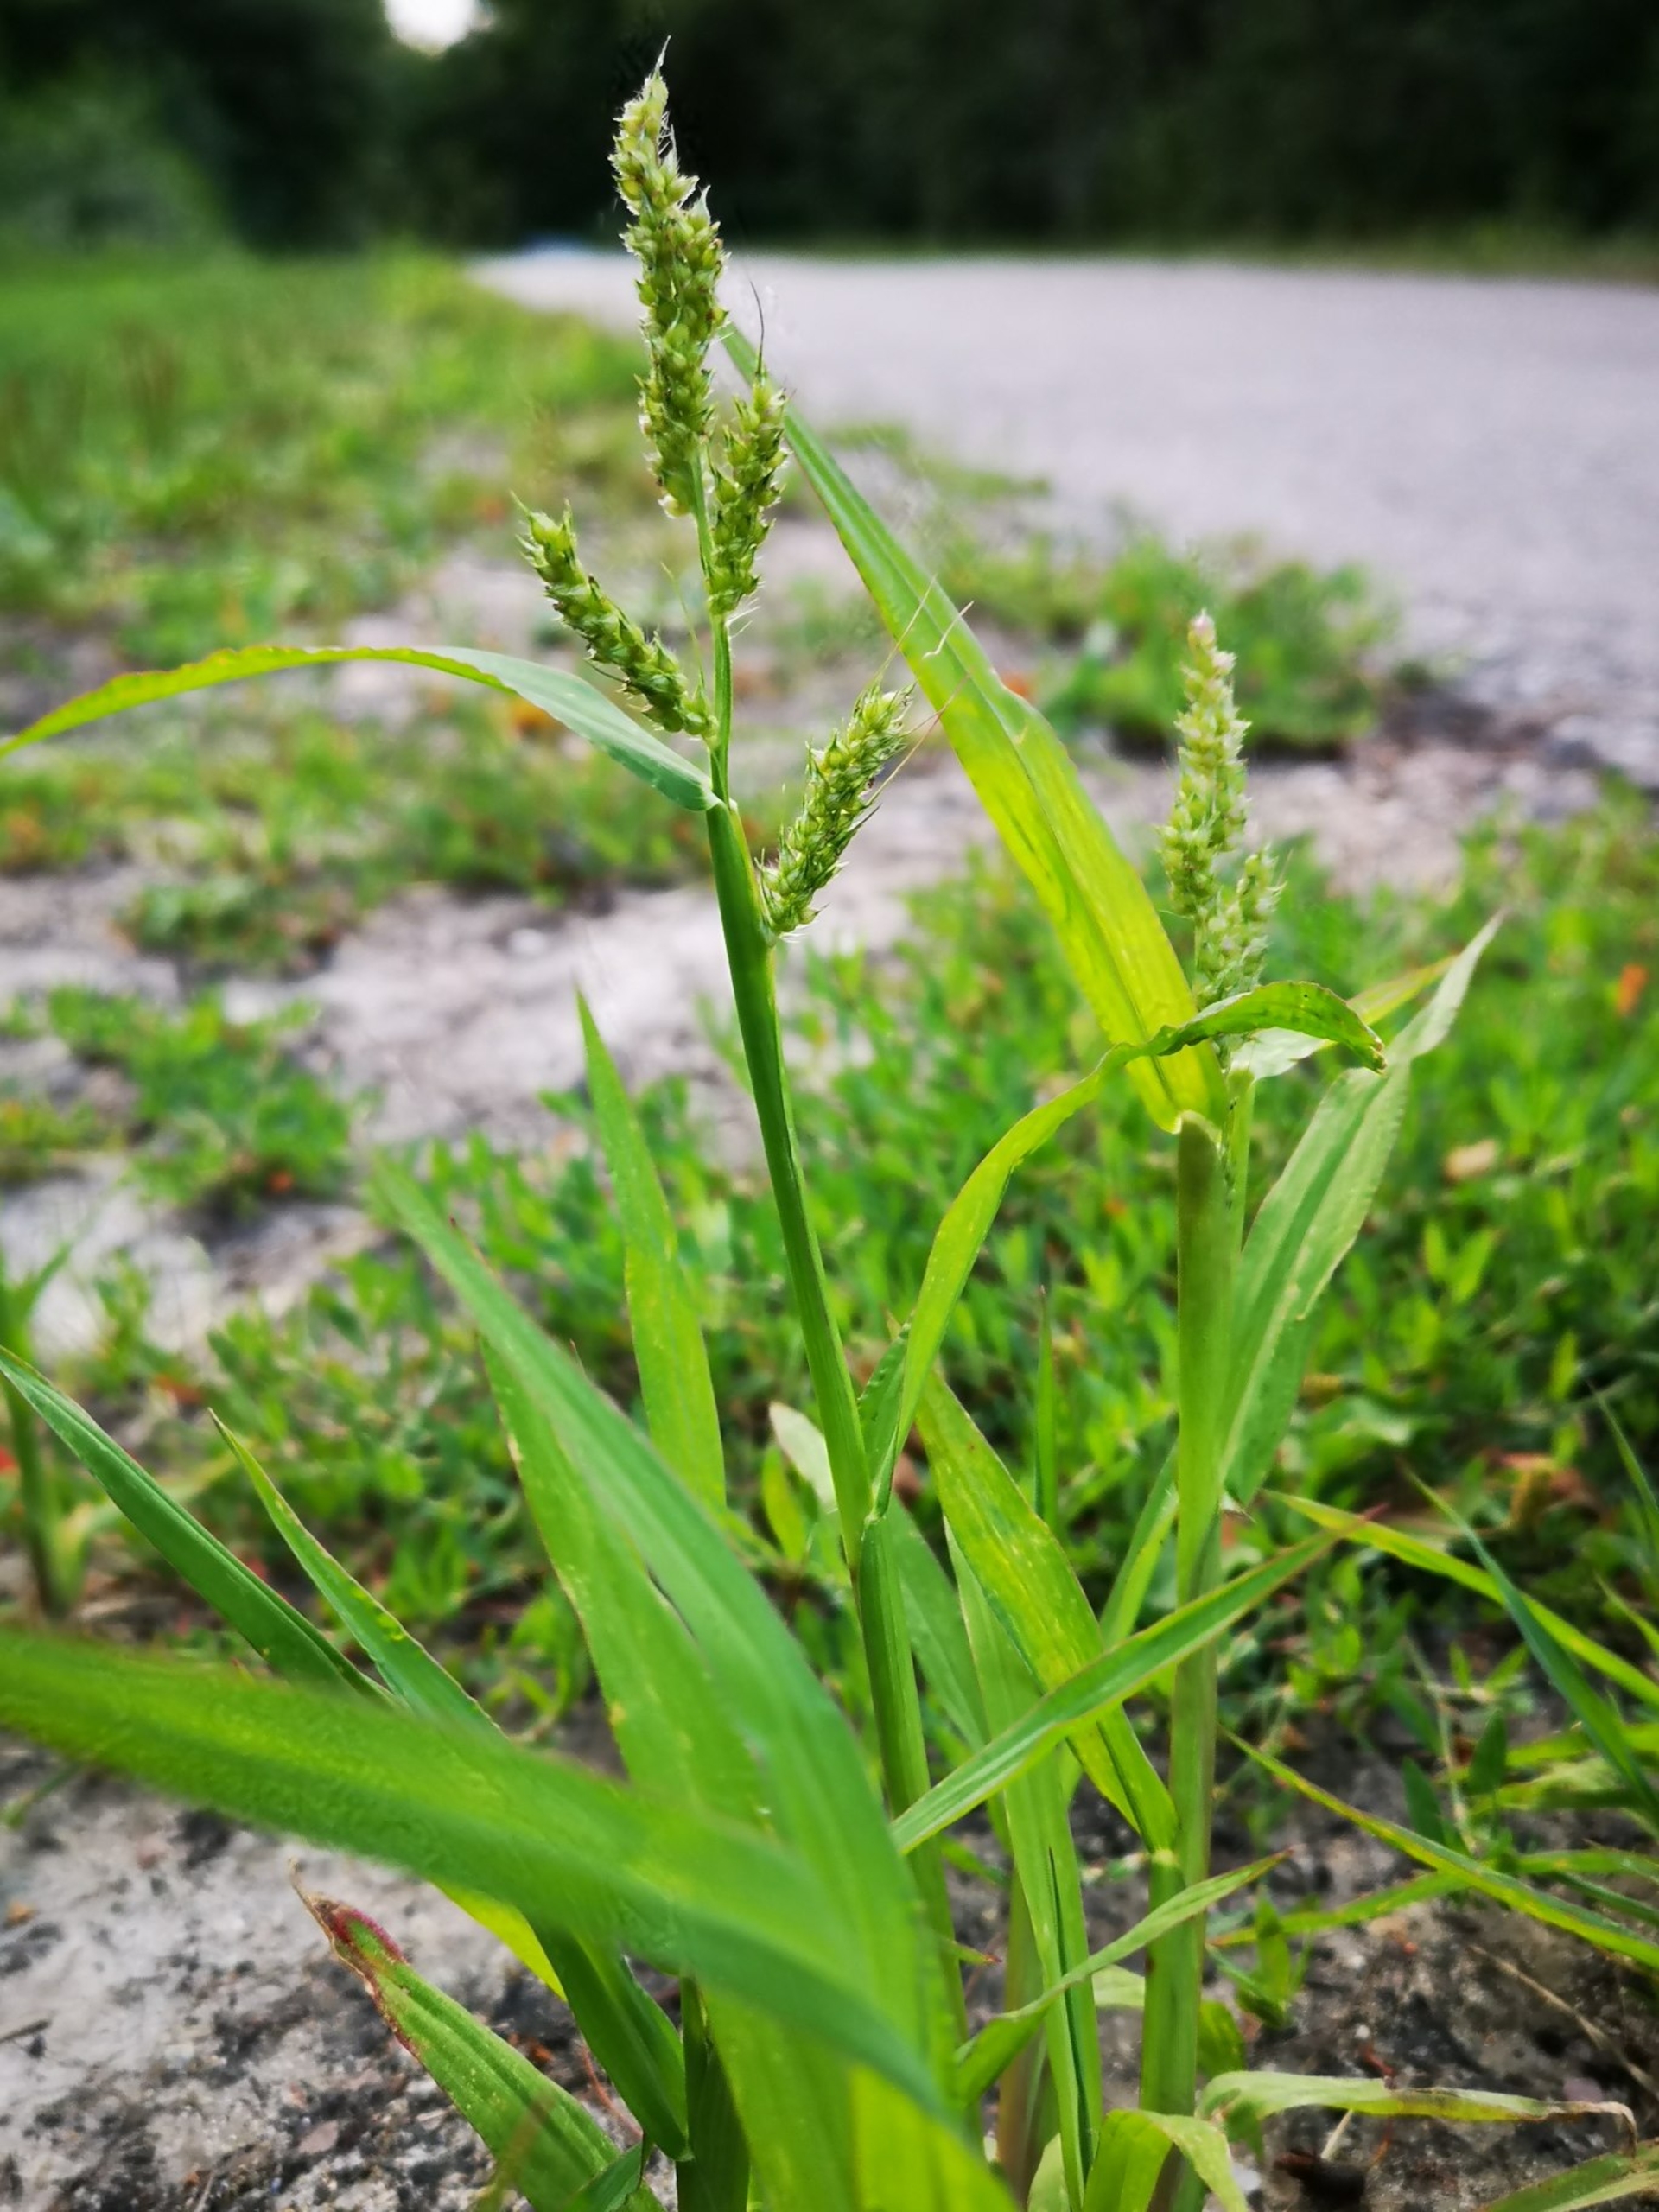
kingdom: Plantae
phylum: Tracheophyta
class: Liliopsida
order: Poales
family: Poaceae
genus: Echinochloa
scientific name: Echinochloa crus-galli
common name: Almindelig hanespore
